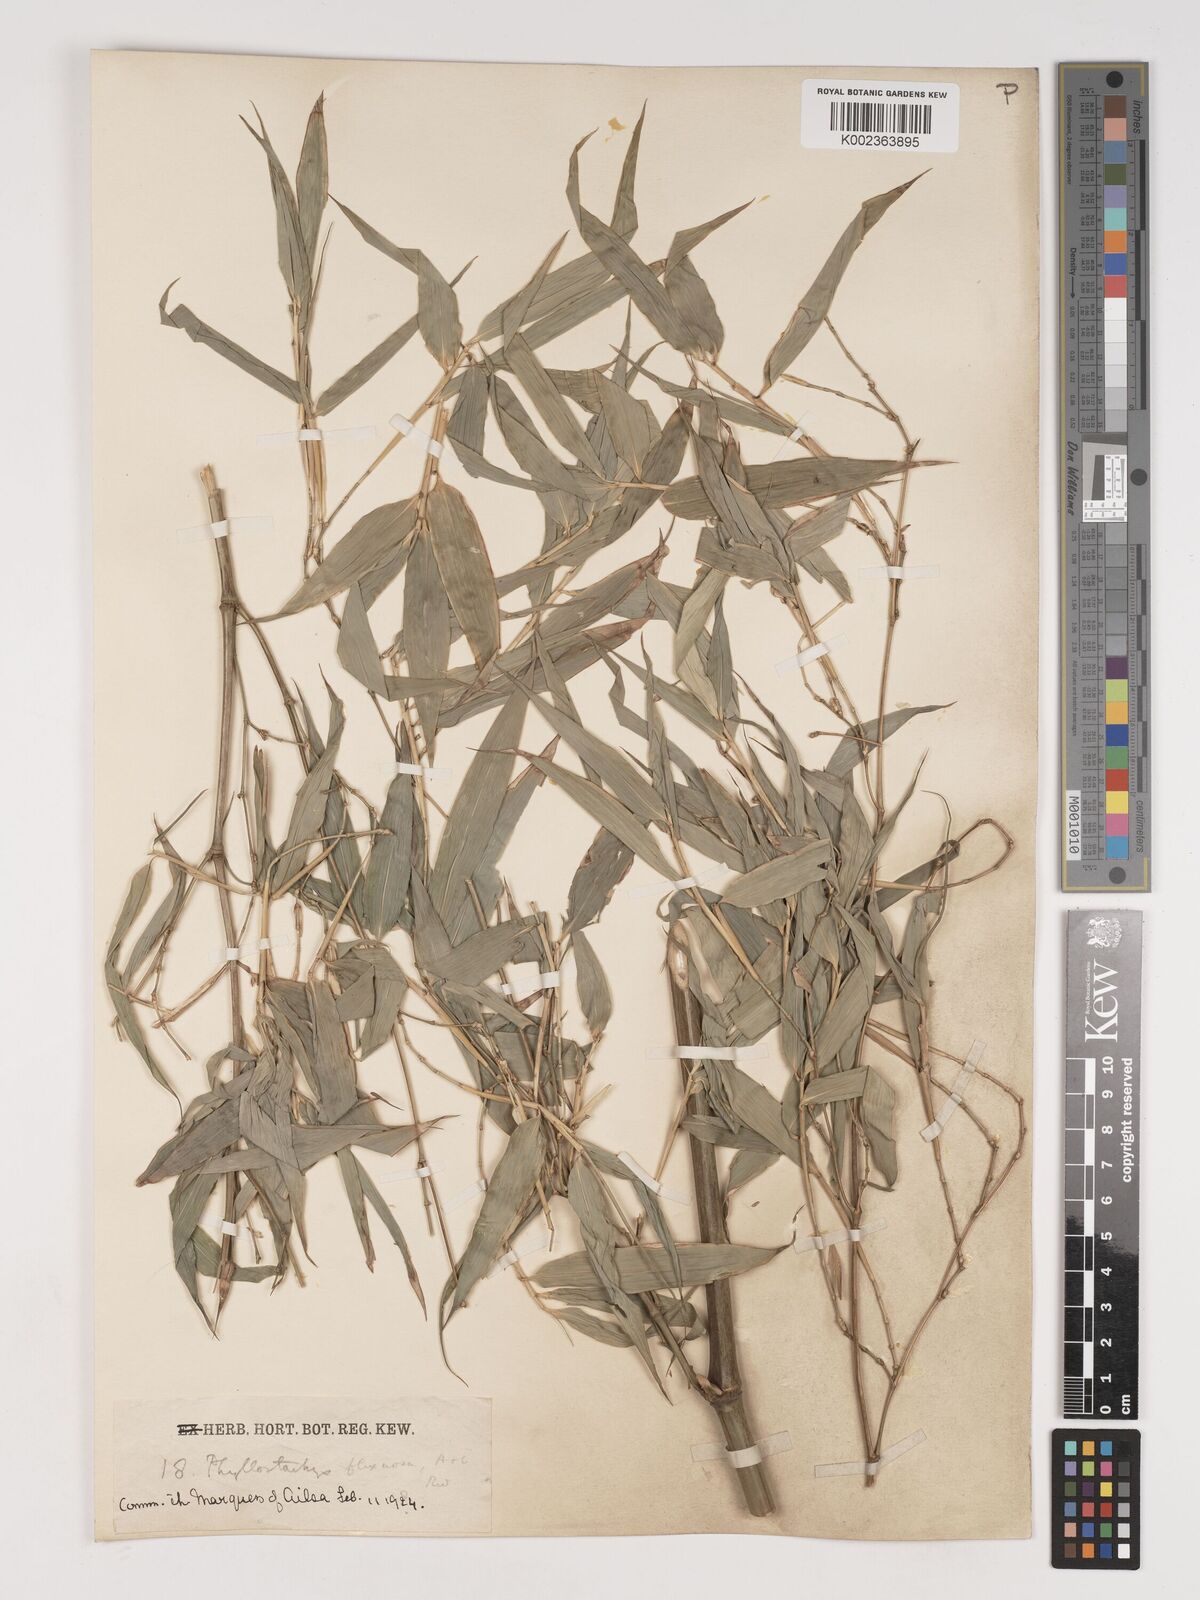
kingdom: Plantae
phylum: Tracheophyta
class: Liliopsida
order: Poales
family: Poaceae
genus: Phyllostachys
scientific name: Phyllostachys flexuosa
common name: Drooping timber bamboo
